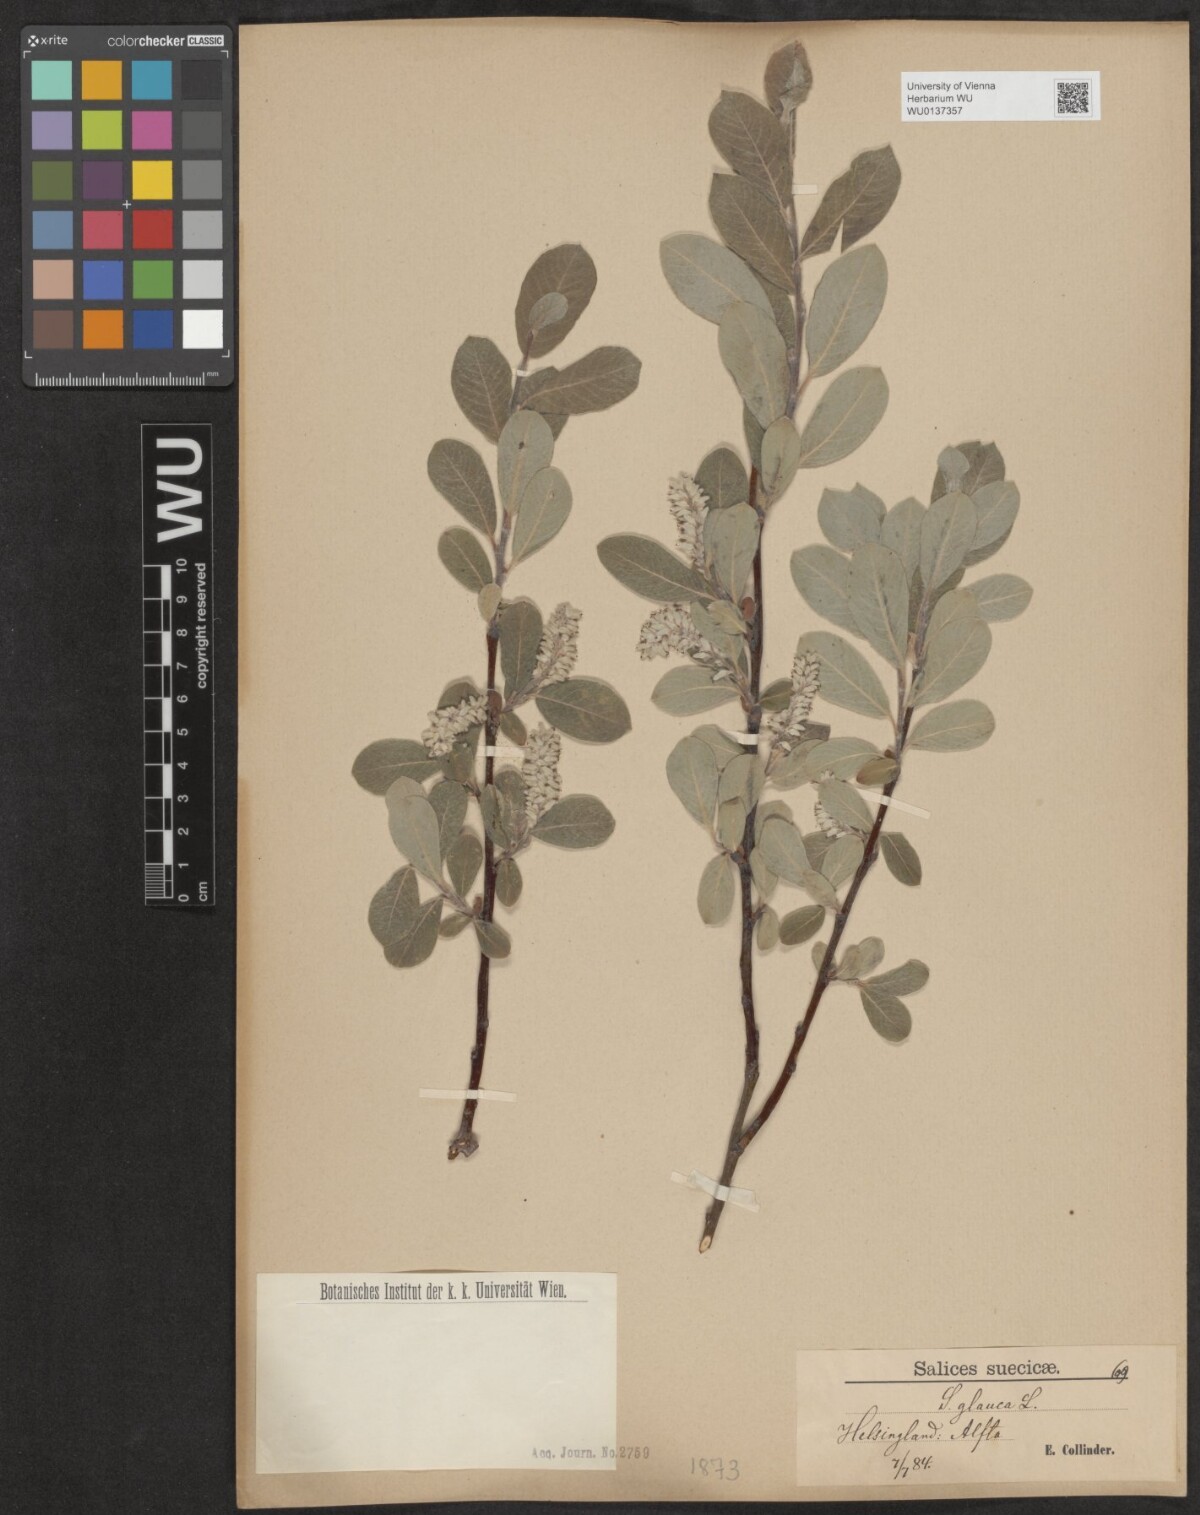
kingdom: Plantae
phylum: Tracheophyta
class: Magnoliopsida
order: Malpighiales
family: Salicaceae
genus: Salix
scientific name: Salix glauca
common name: Glaucous willow
